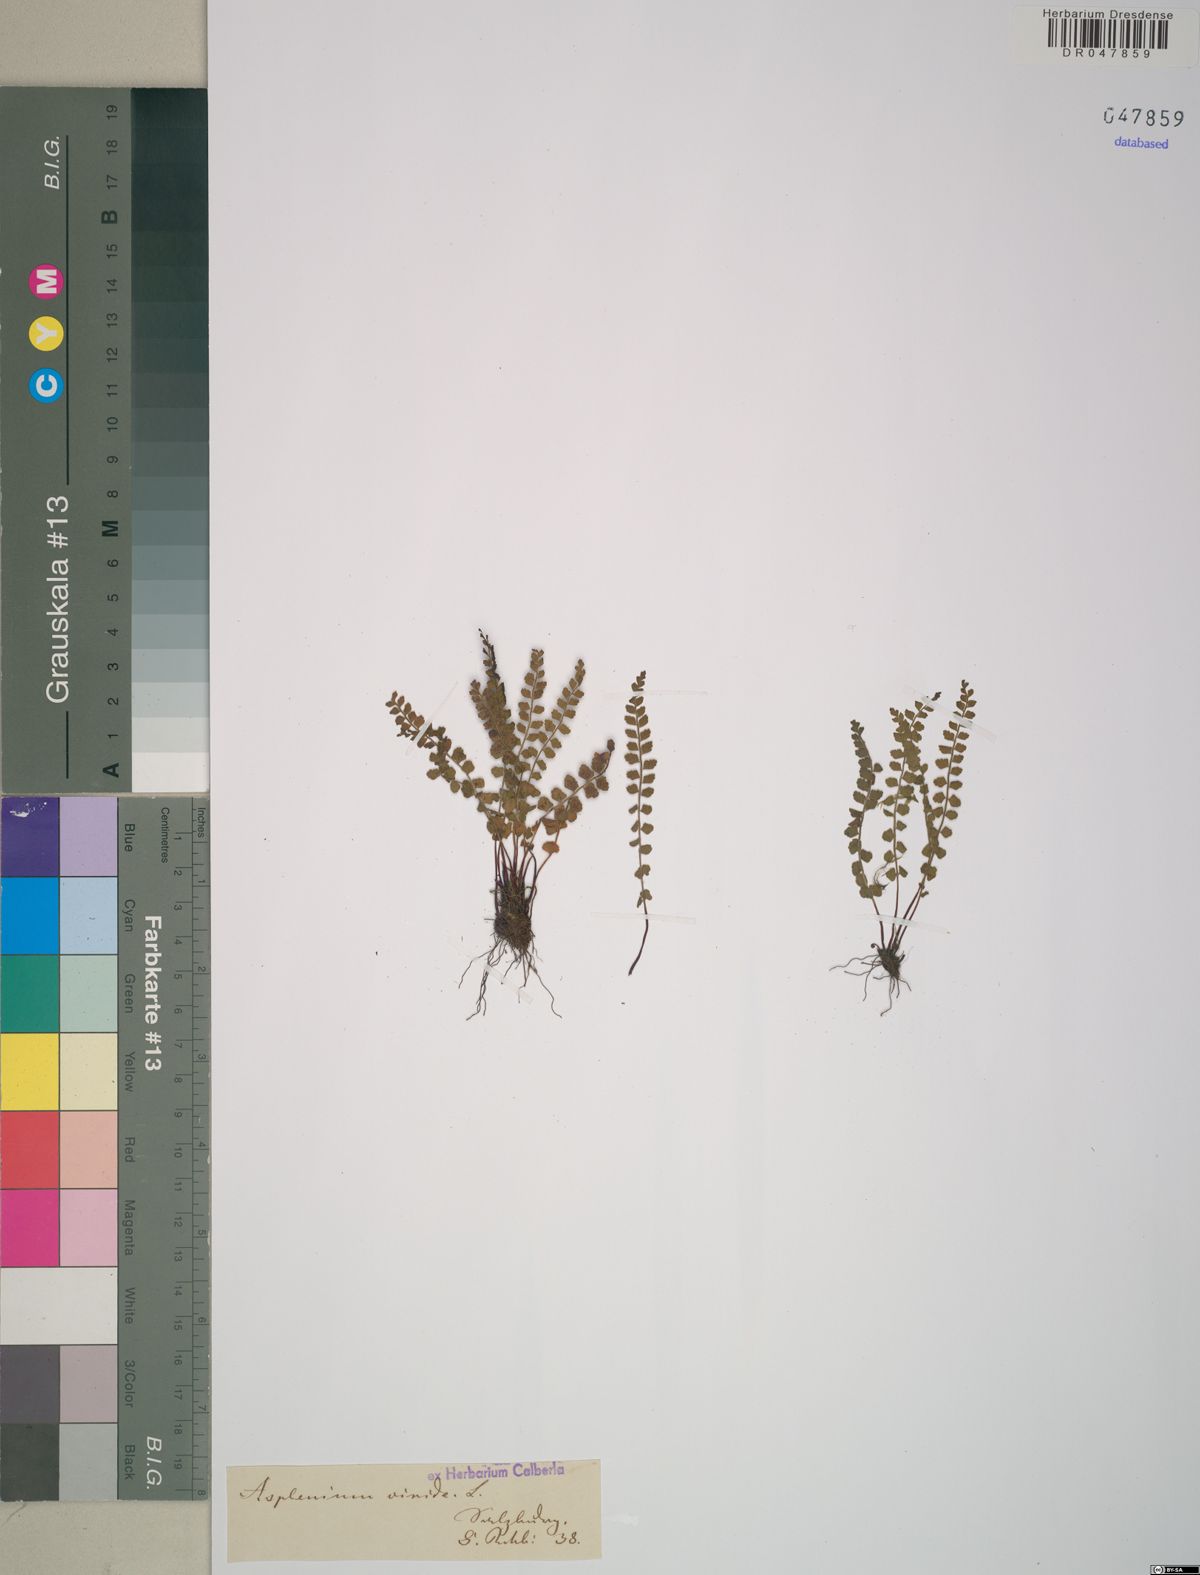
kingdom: Plantae
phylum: Tracheophyta
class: Polypodiopsida
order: Polypodiales
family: Aspleniaceae
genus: Asplenium
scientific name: Asplenium viride
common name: Green spleenwort
